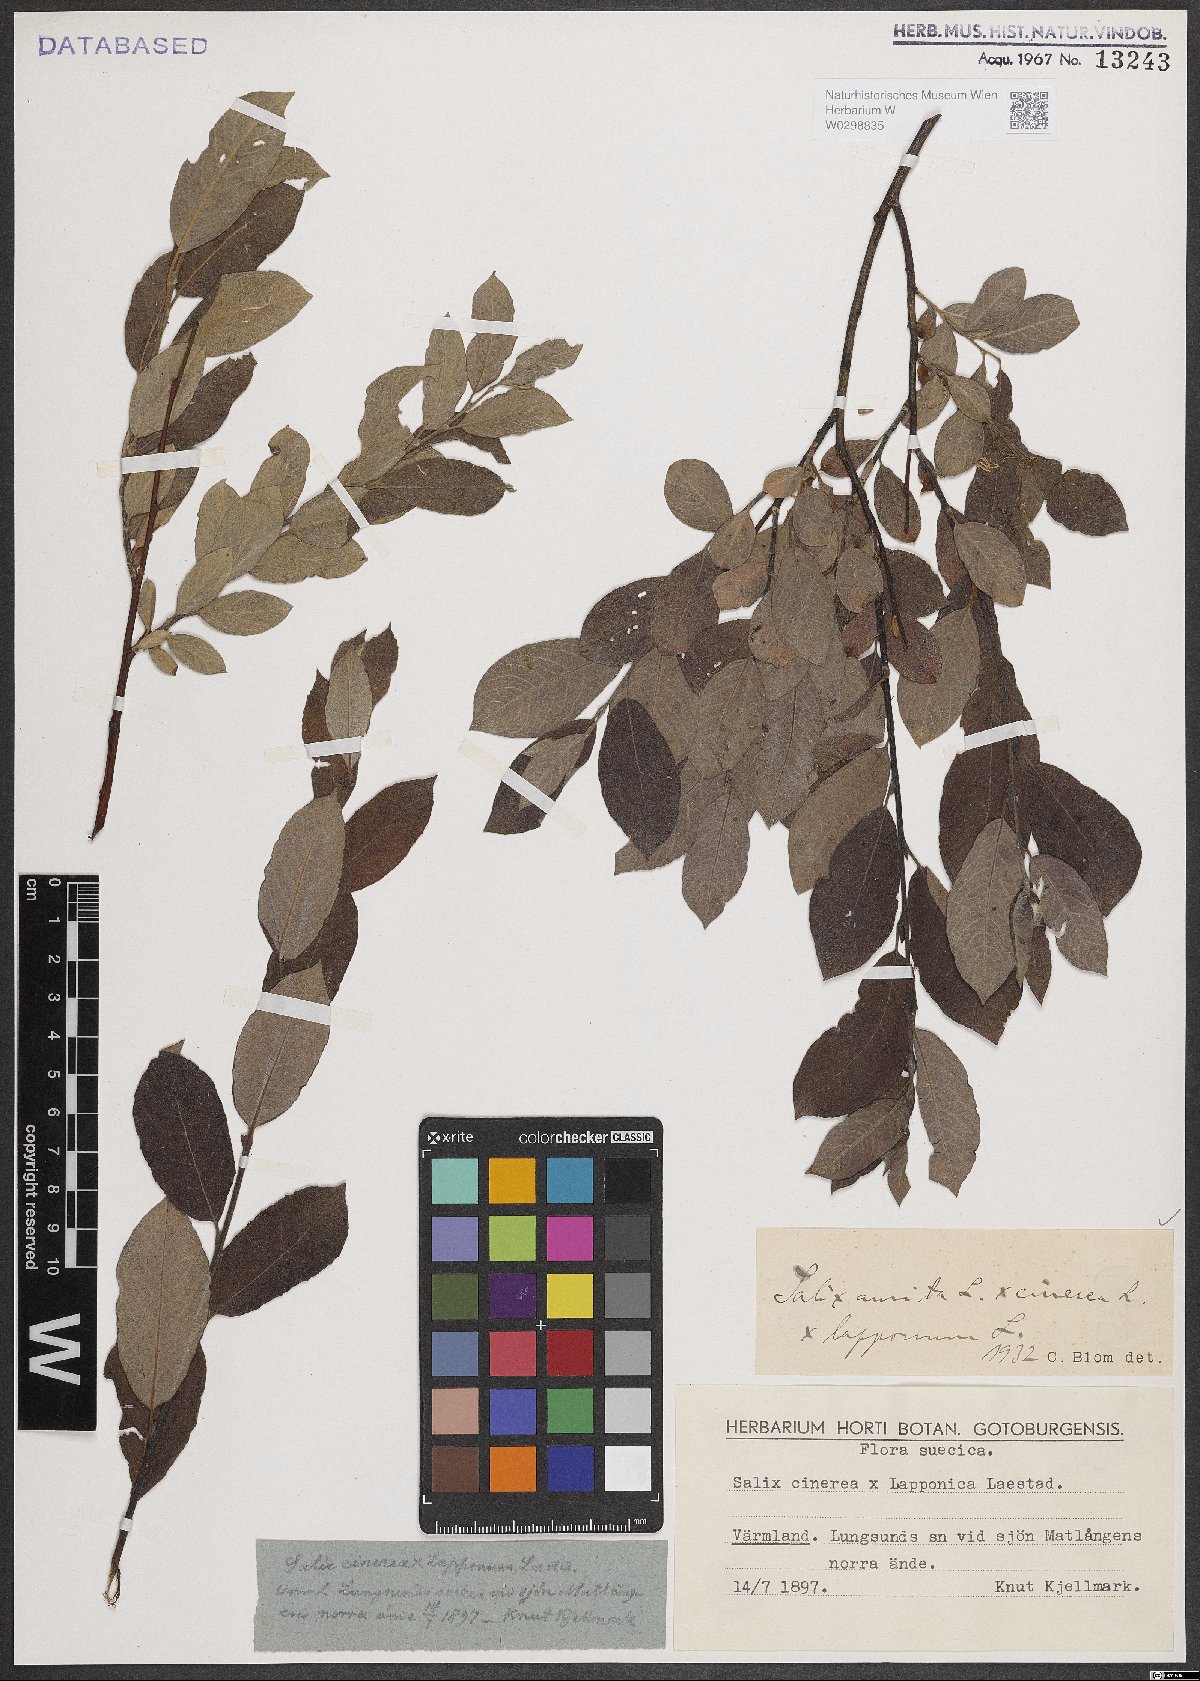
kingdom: Plantae
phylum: Tracheophyta
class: Magnoliopsida
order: Malpighiales
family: Salicaceae
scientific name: Salicaceae
